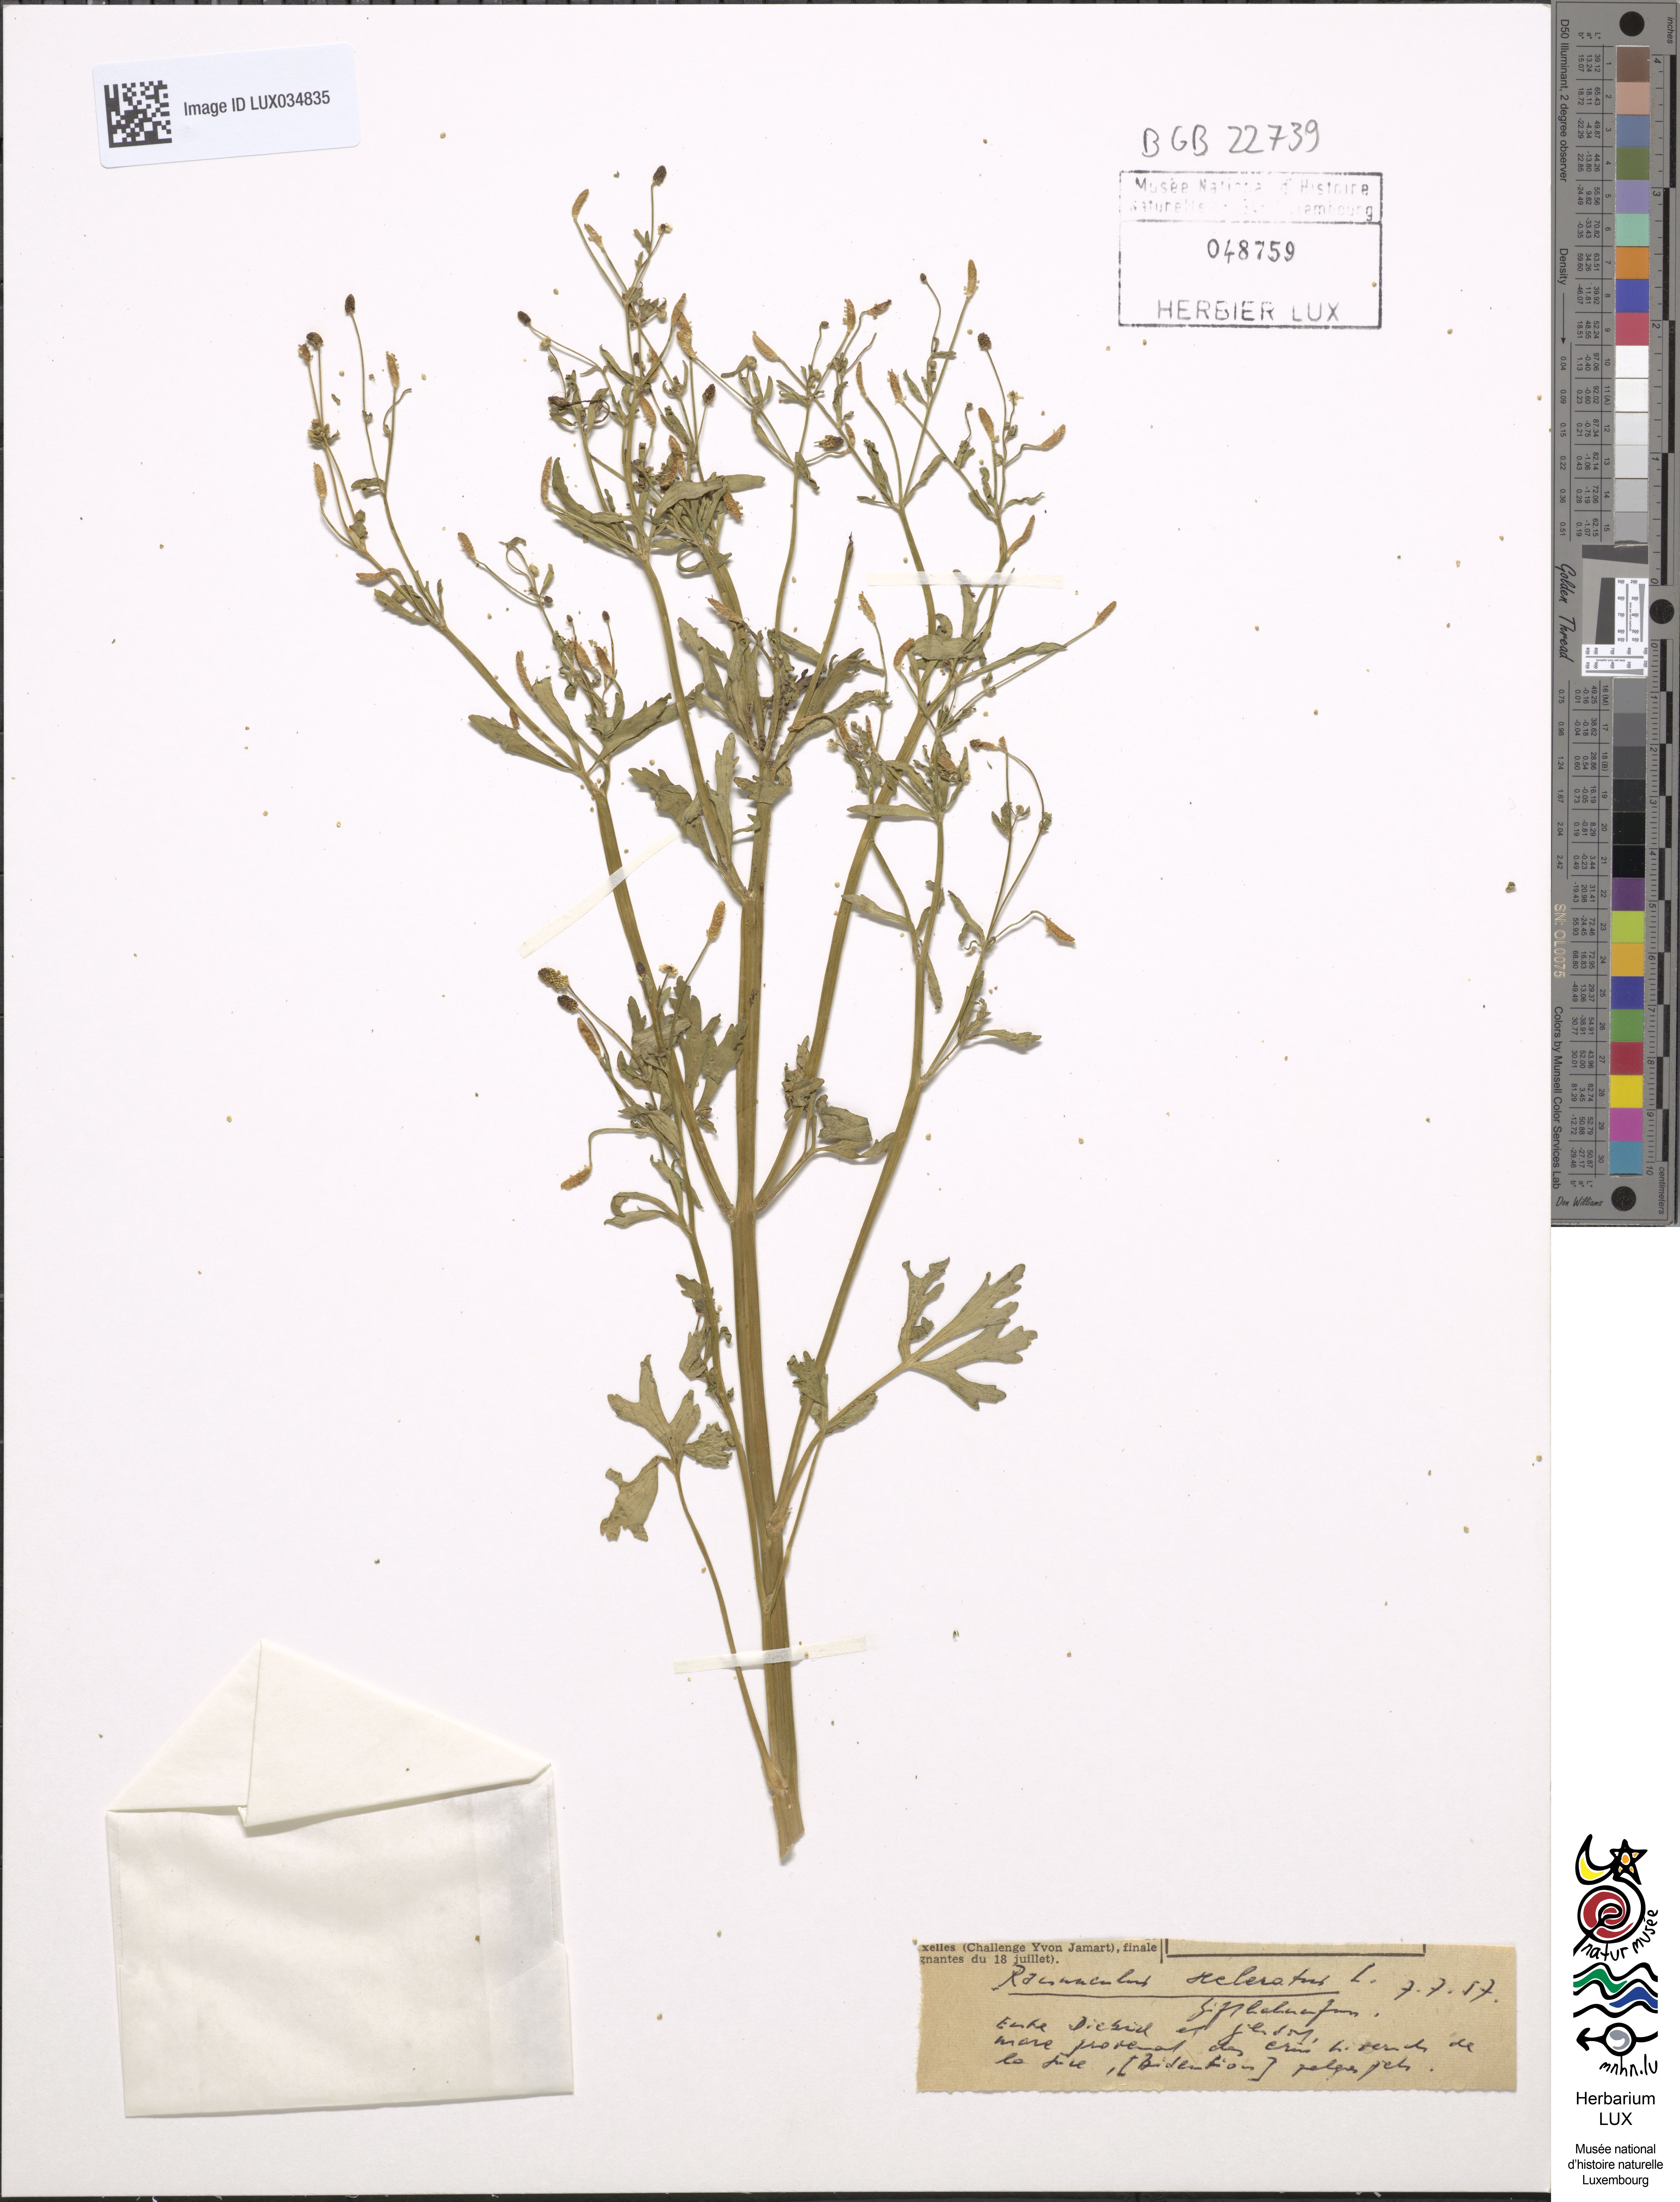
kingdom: Plantae
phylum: Tracheophyta
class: Magnoliopsida
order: Ranunculales
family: Ranunculaceae
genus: Ranunculus
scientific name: Ranunculus sceleratus
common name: Celery-leaved buttercup
